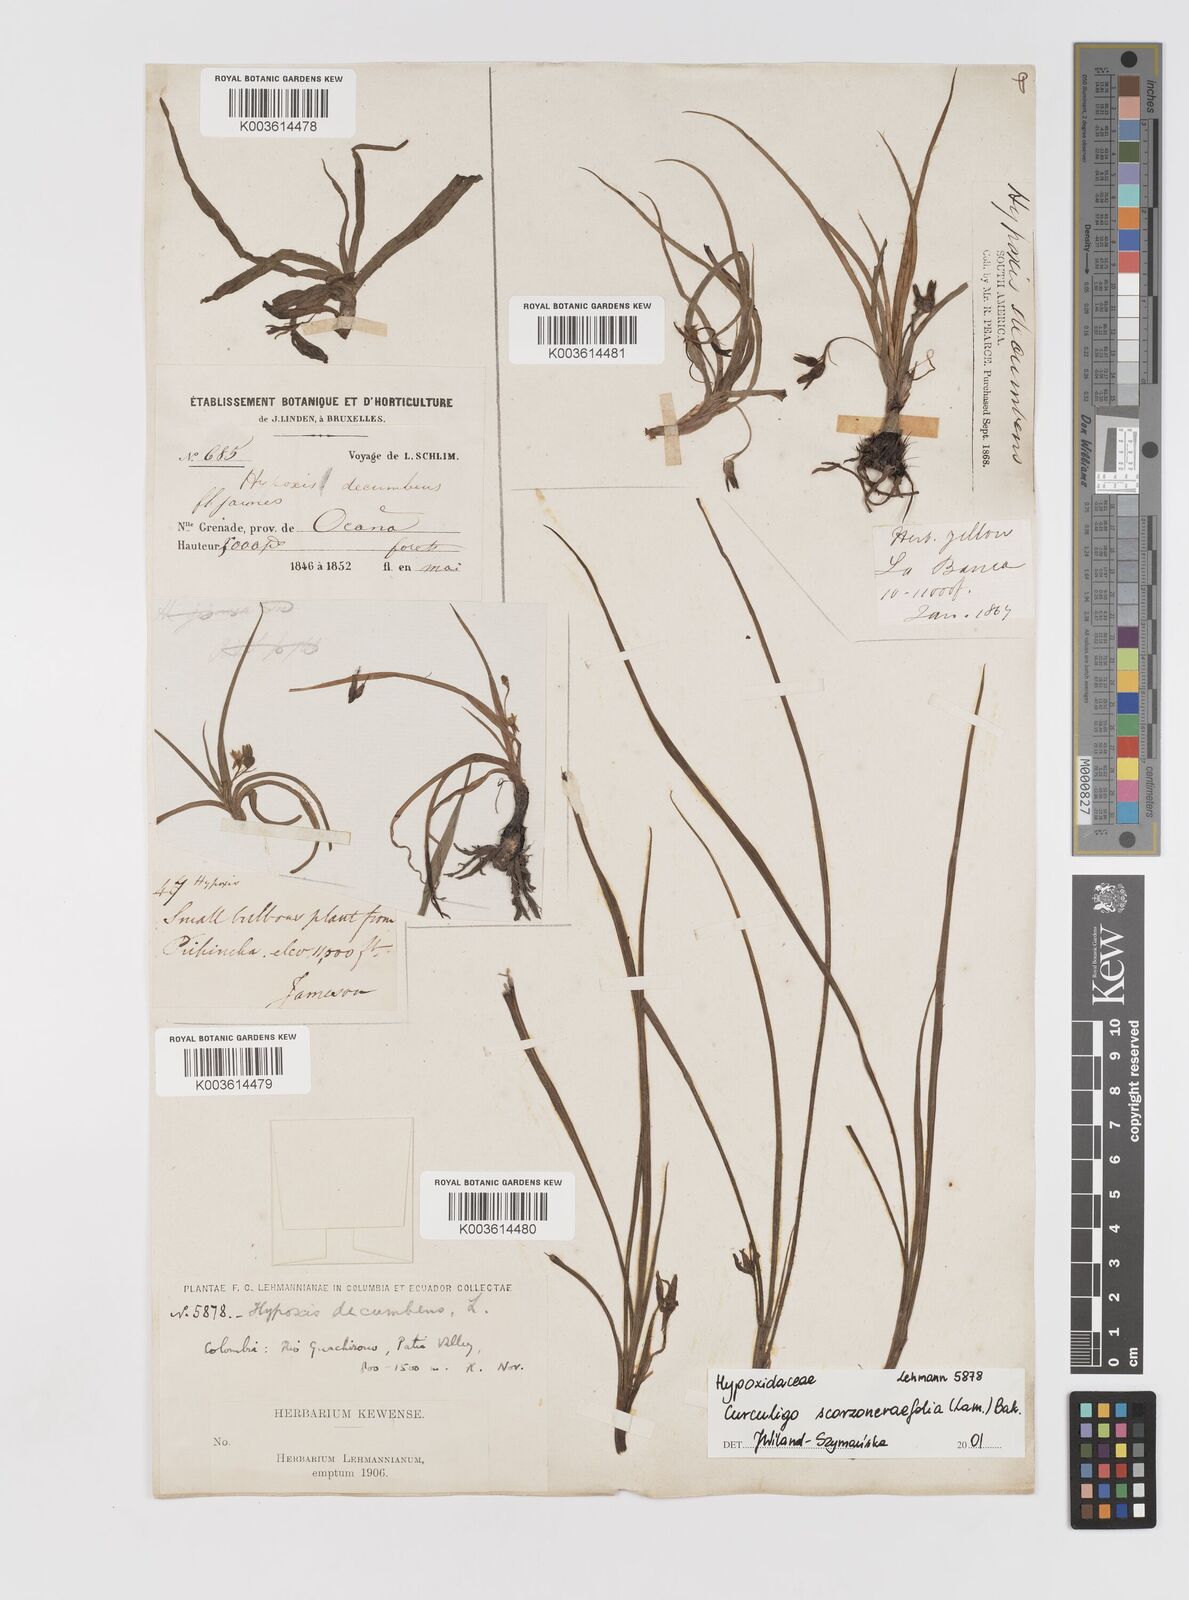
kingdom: Plantae
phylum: Tracheophyta
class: Liliopsida
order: Asparagales
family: Hypoxidaceae
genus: Curculigo
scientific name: Curculigo scorzonerifolia
